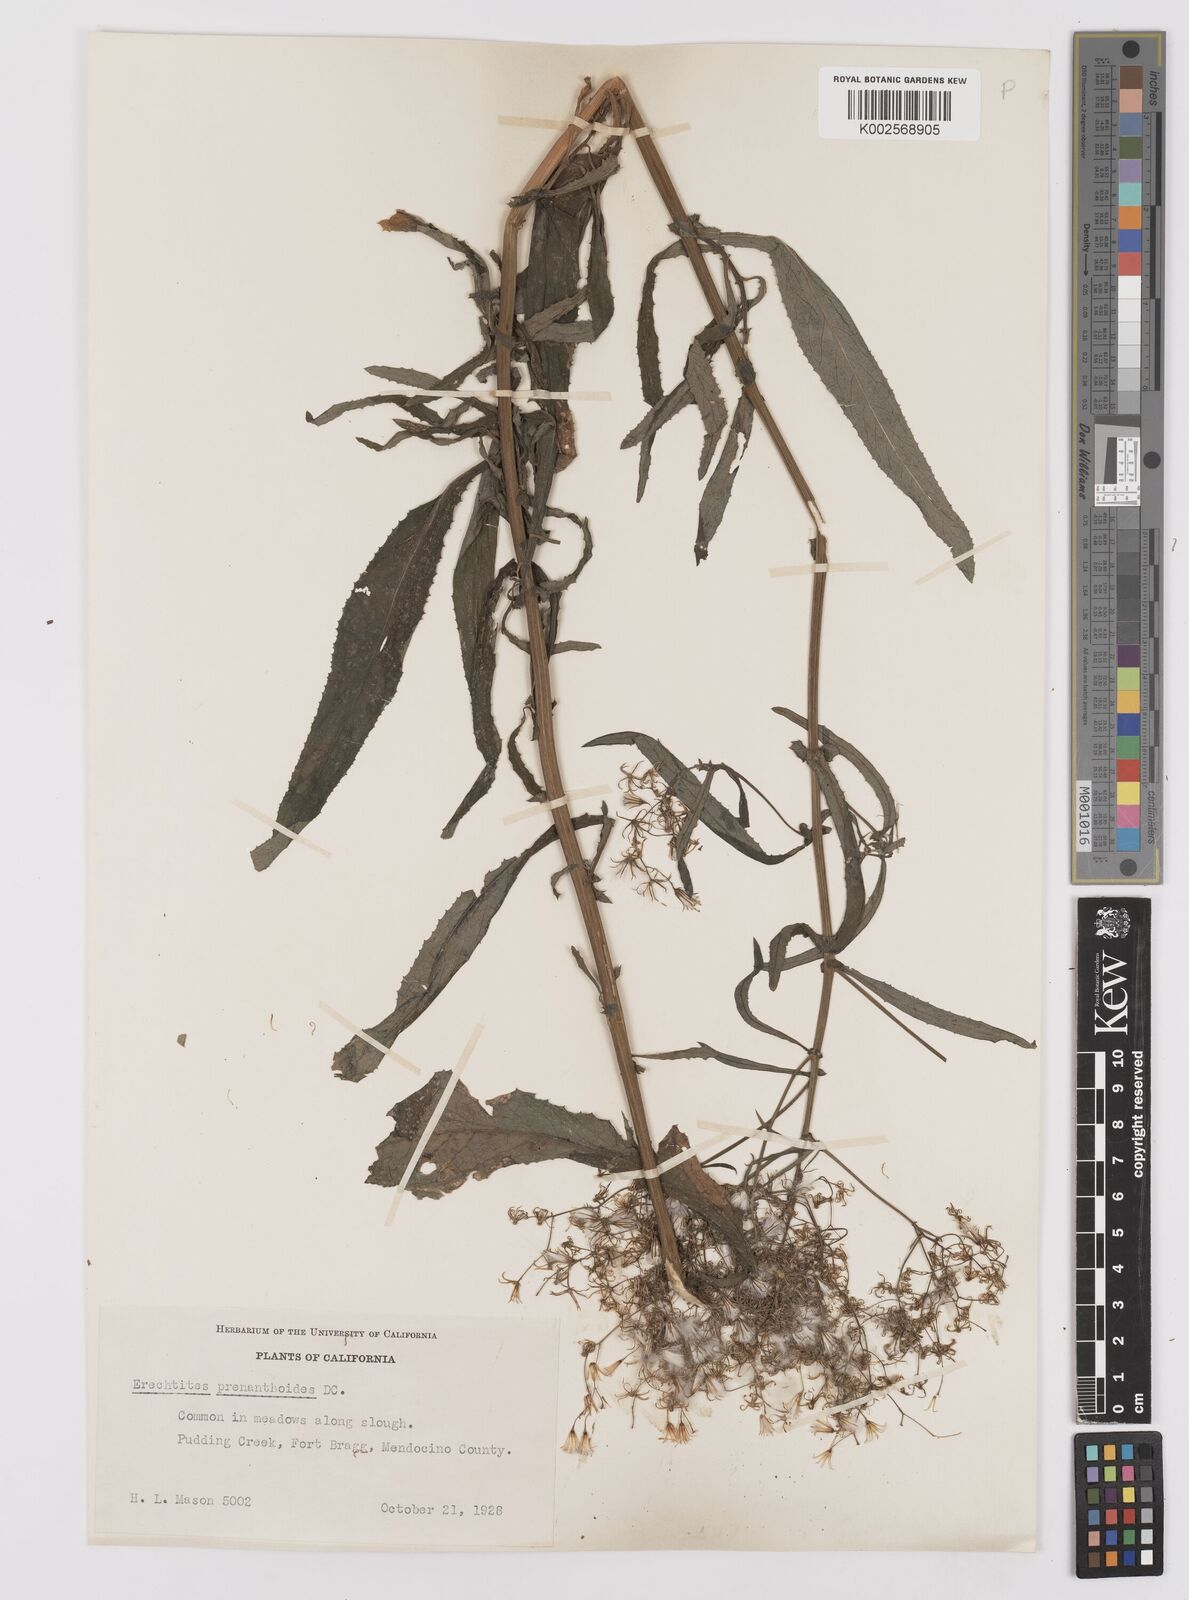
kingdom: Plantae
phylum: Tracheophyta
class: Magnoliopsida
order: Asterales
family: Asteraceae
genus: Senecio
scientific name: Senecio minimus
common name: Toothed fireweed
